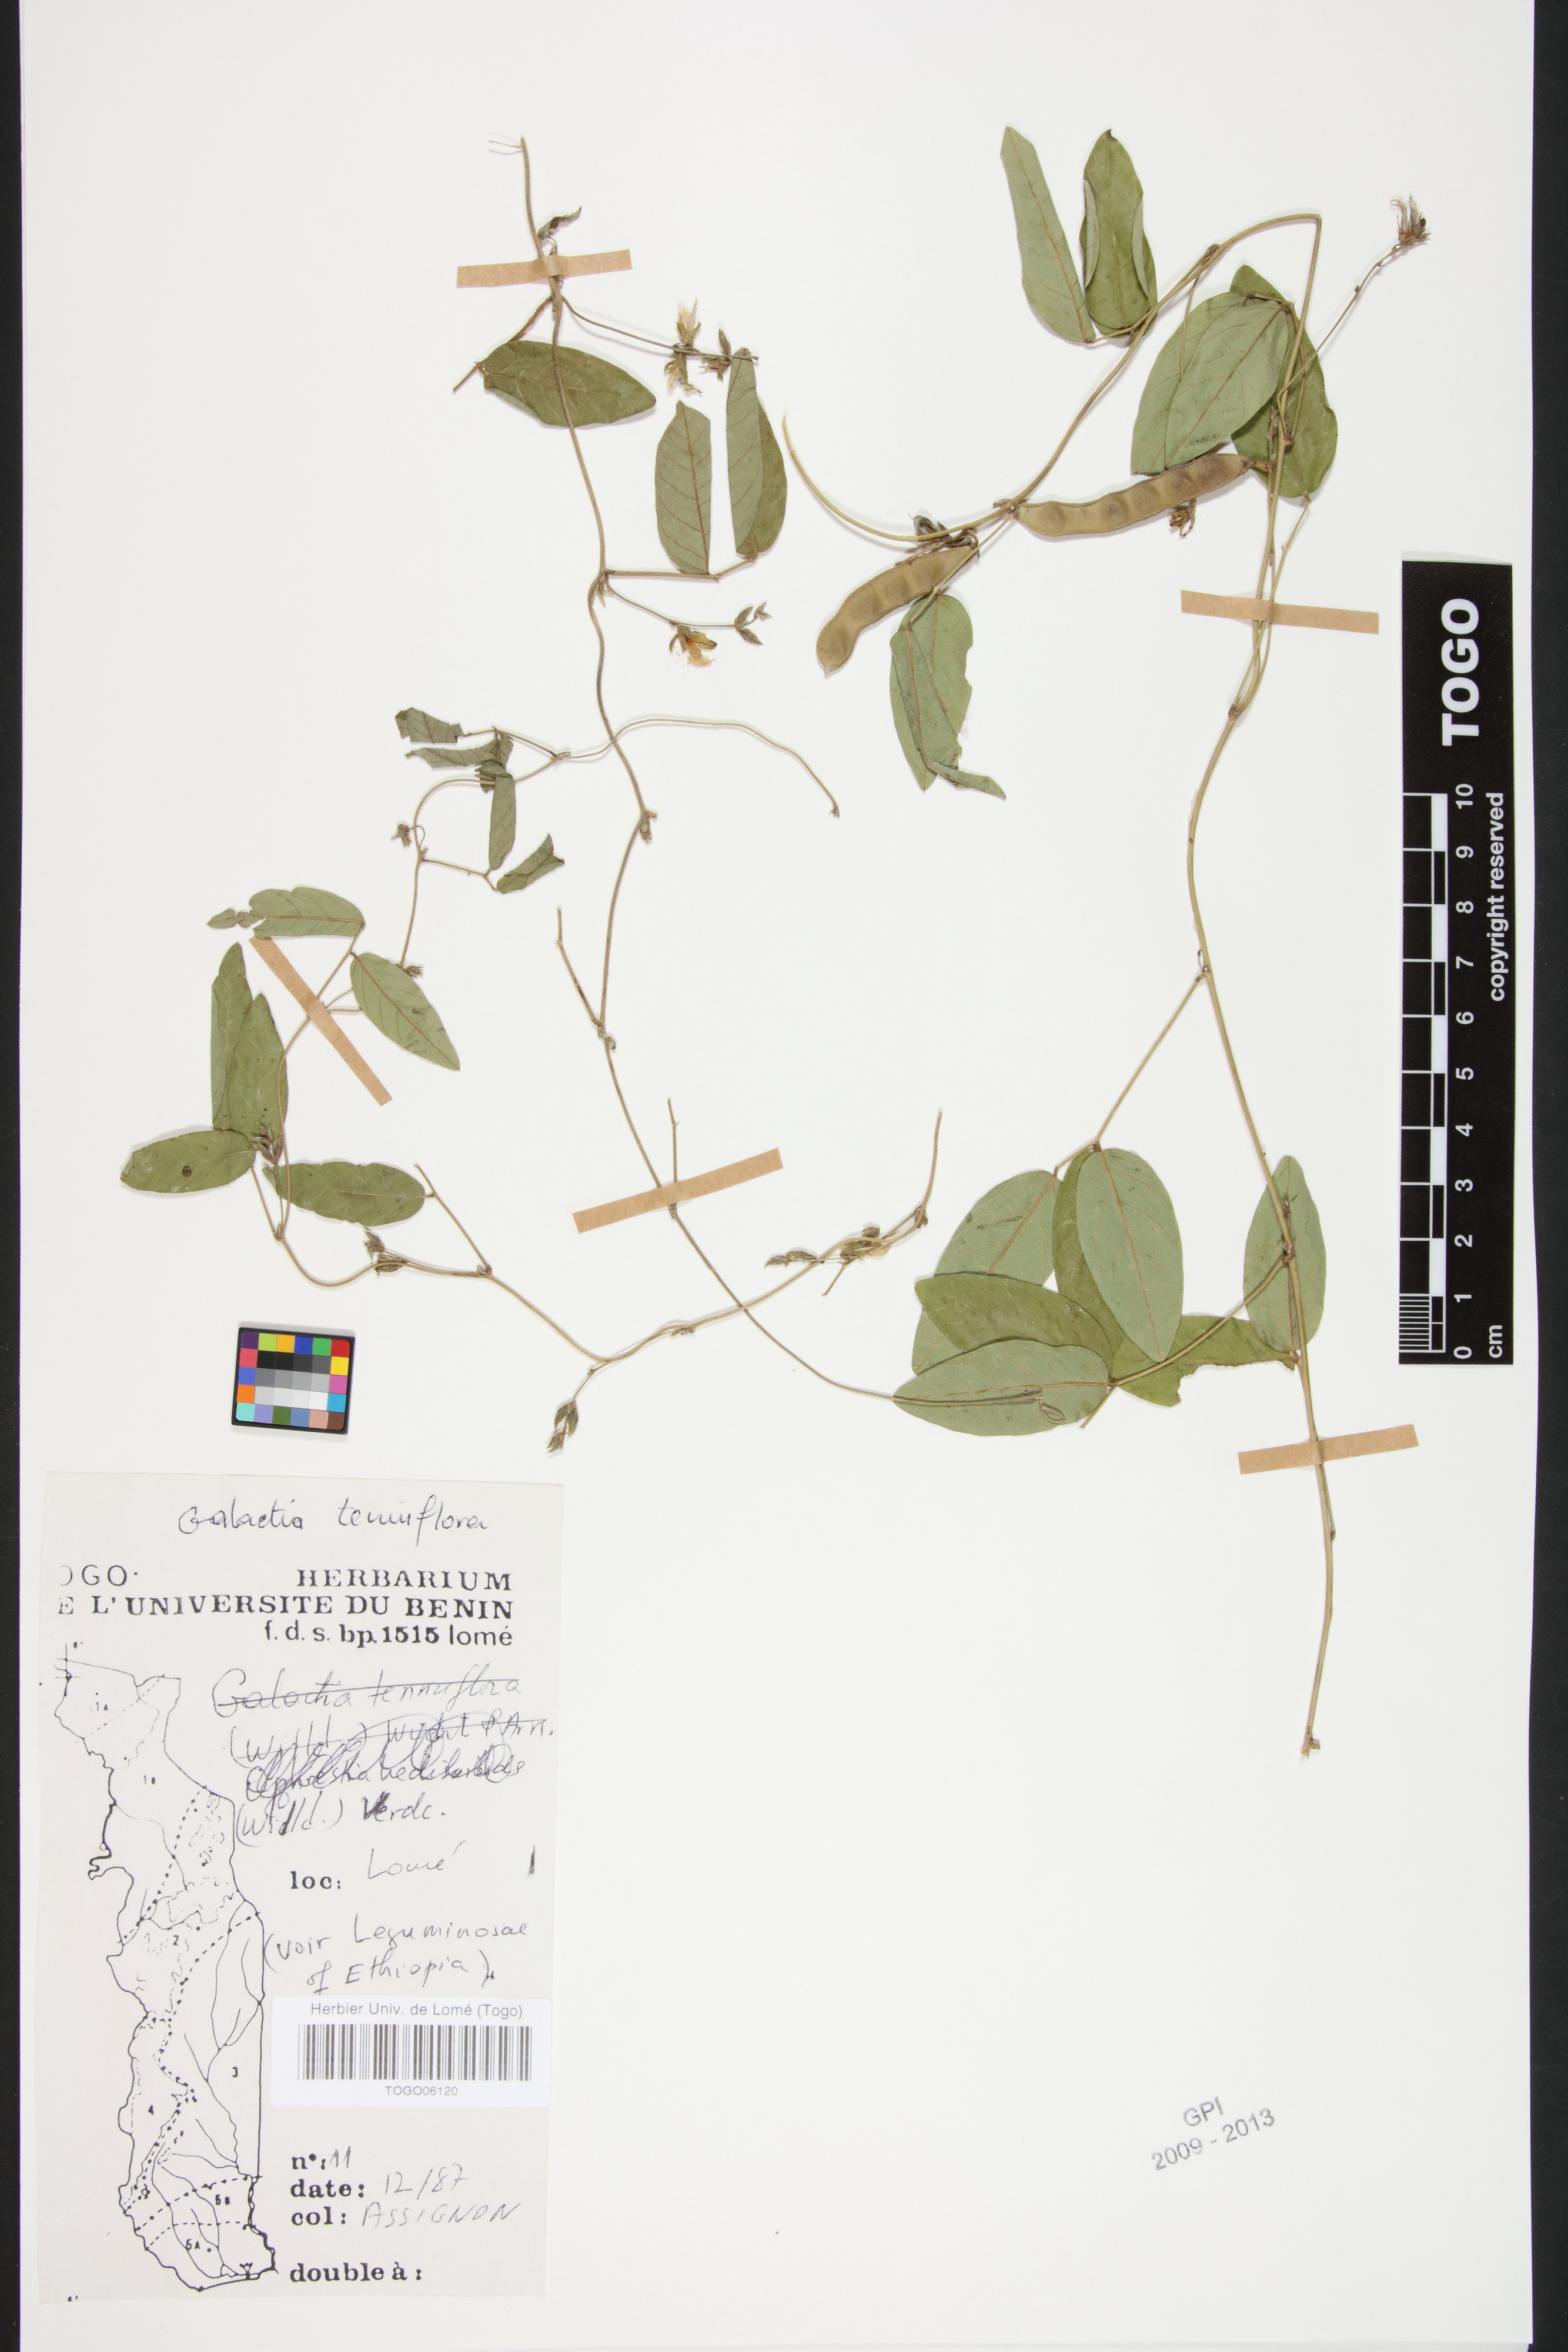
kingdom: Plantae
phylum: Tracheophyta
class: Magnoliopsida
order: Fabales
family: Fabaceae
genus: Galactia
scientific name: Galactia striata
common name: Florida hammock milkpea
